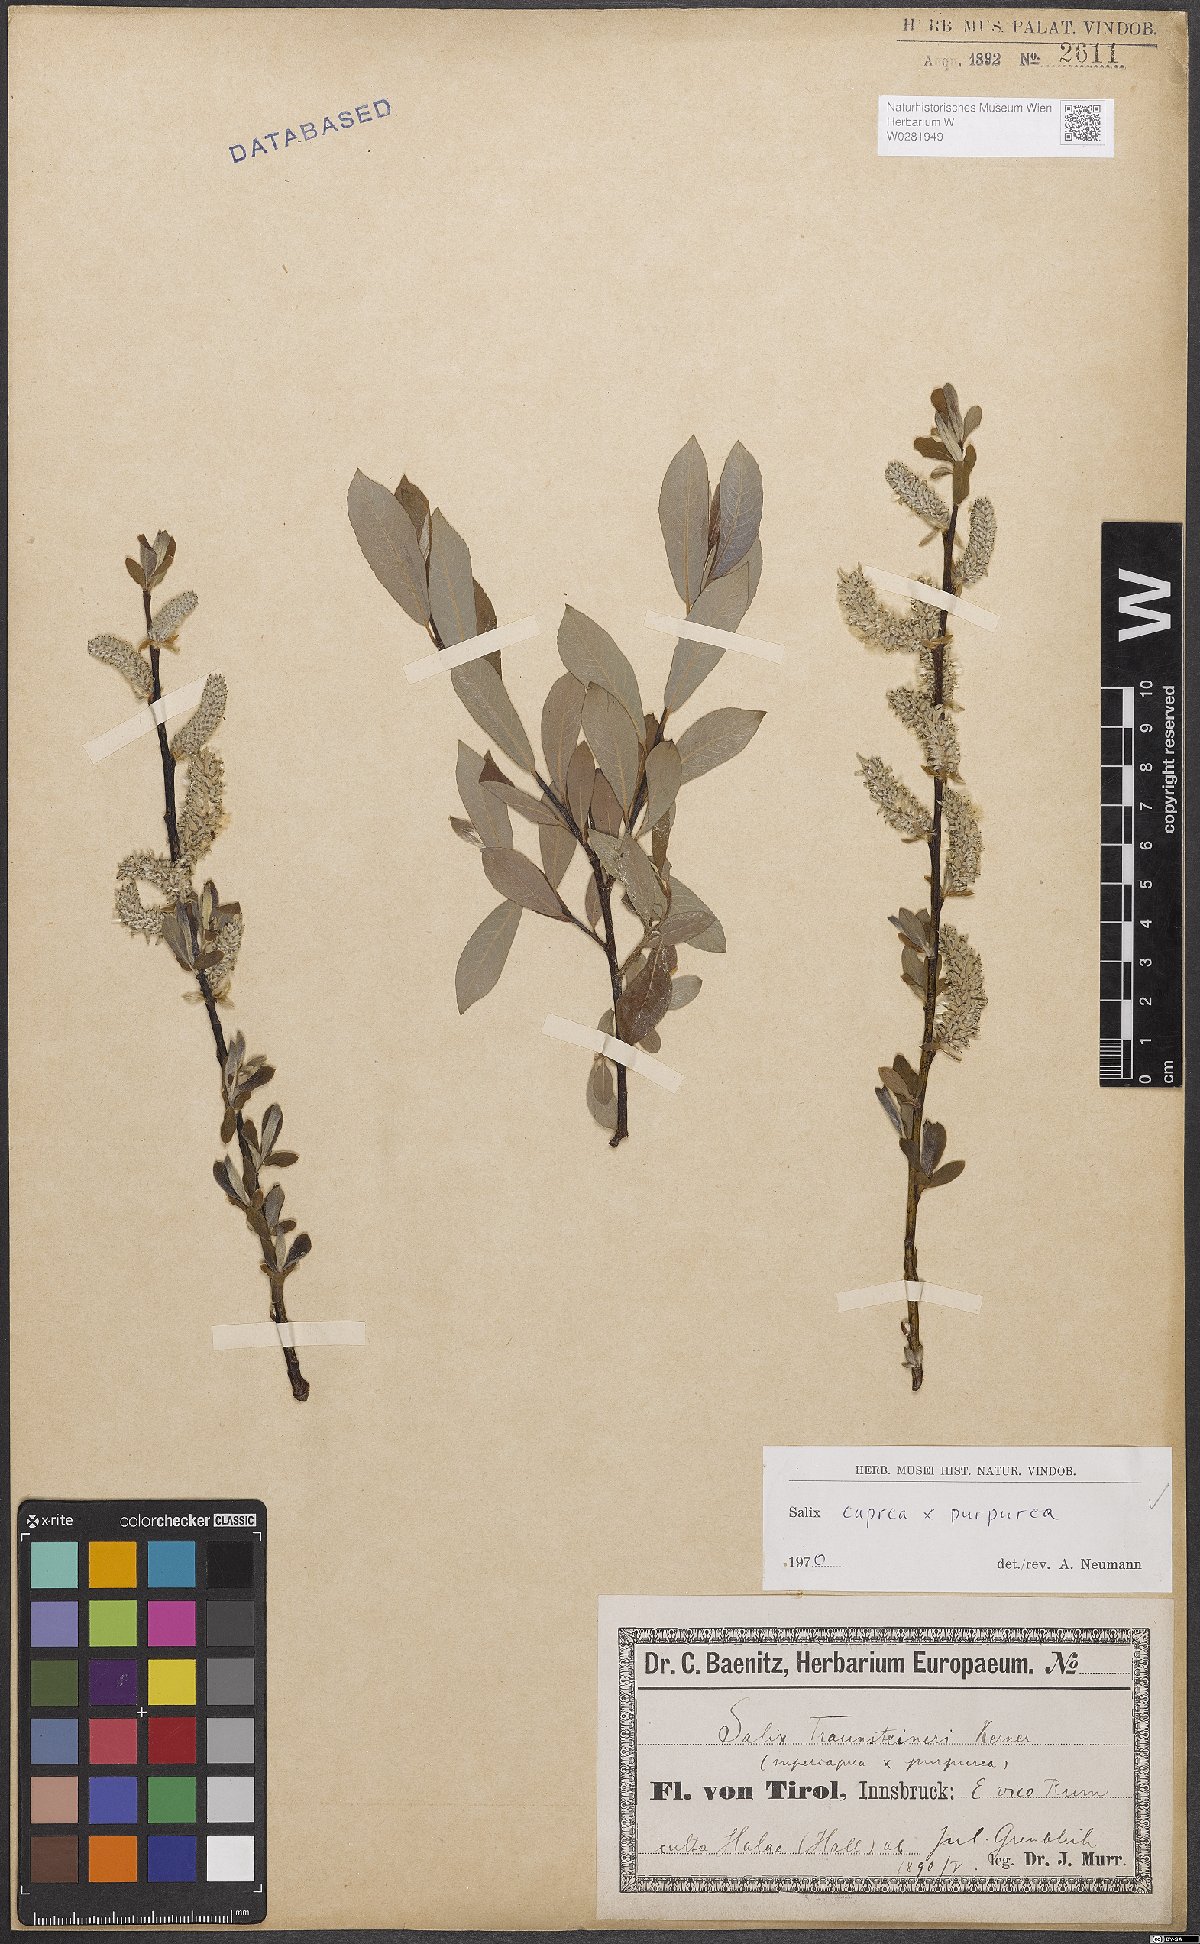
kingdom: Plantae
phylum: Tracheophyta
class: Magnoliopsida
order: Malpighiales
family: Salicaceae
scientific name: Salicaceae
